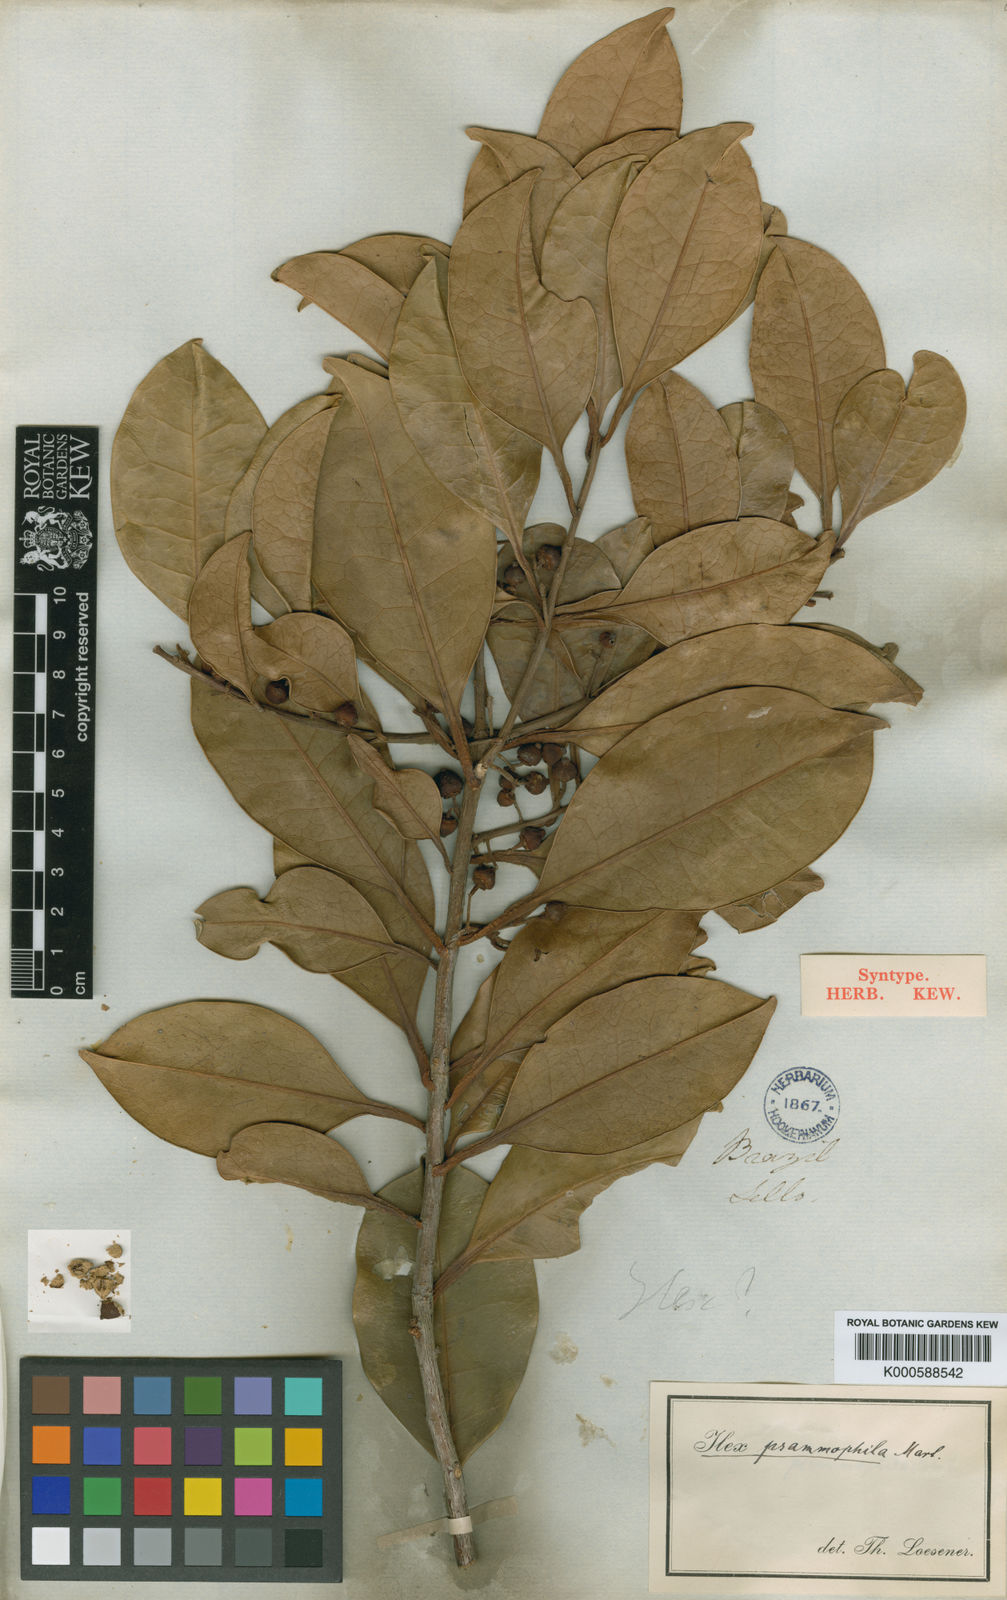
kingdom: Plantae
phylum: Tracheophyta
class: Magnoliopsida
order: Aquifoliales
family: Aquifoliaceae
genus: Ilex
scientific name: Ilex psammophila
